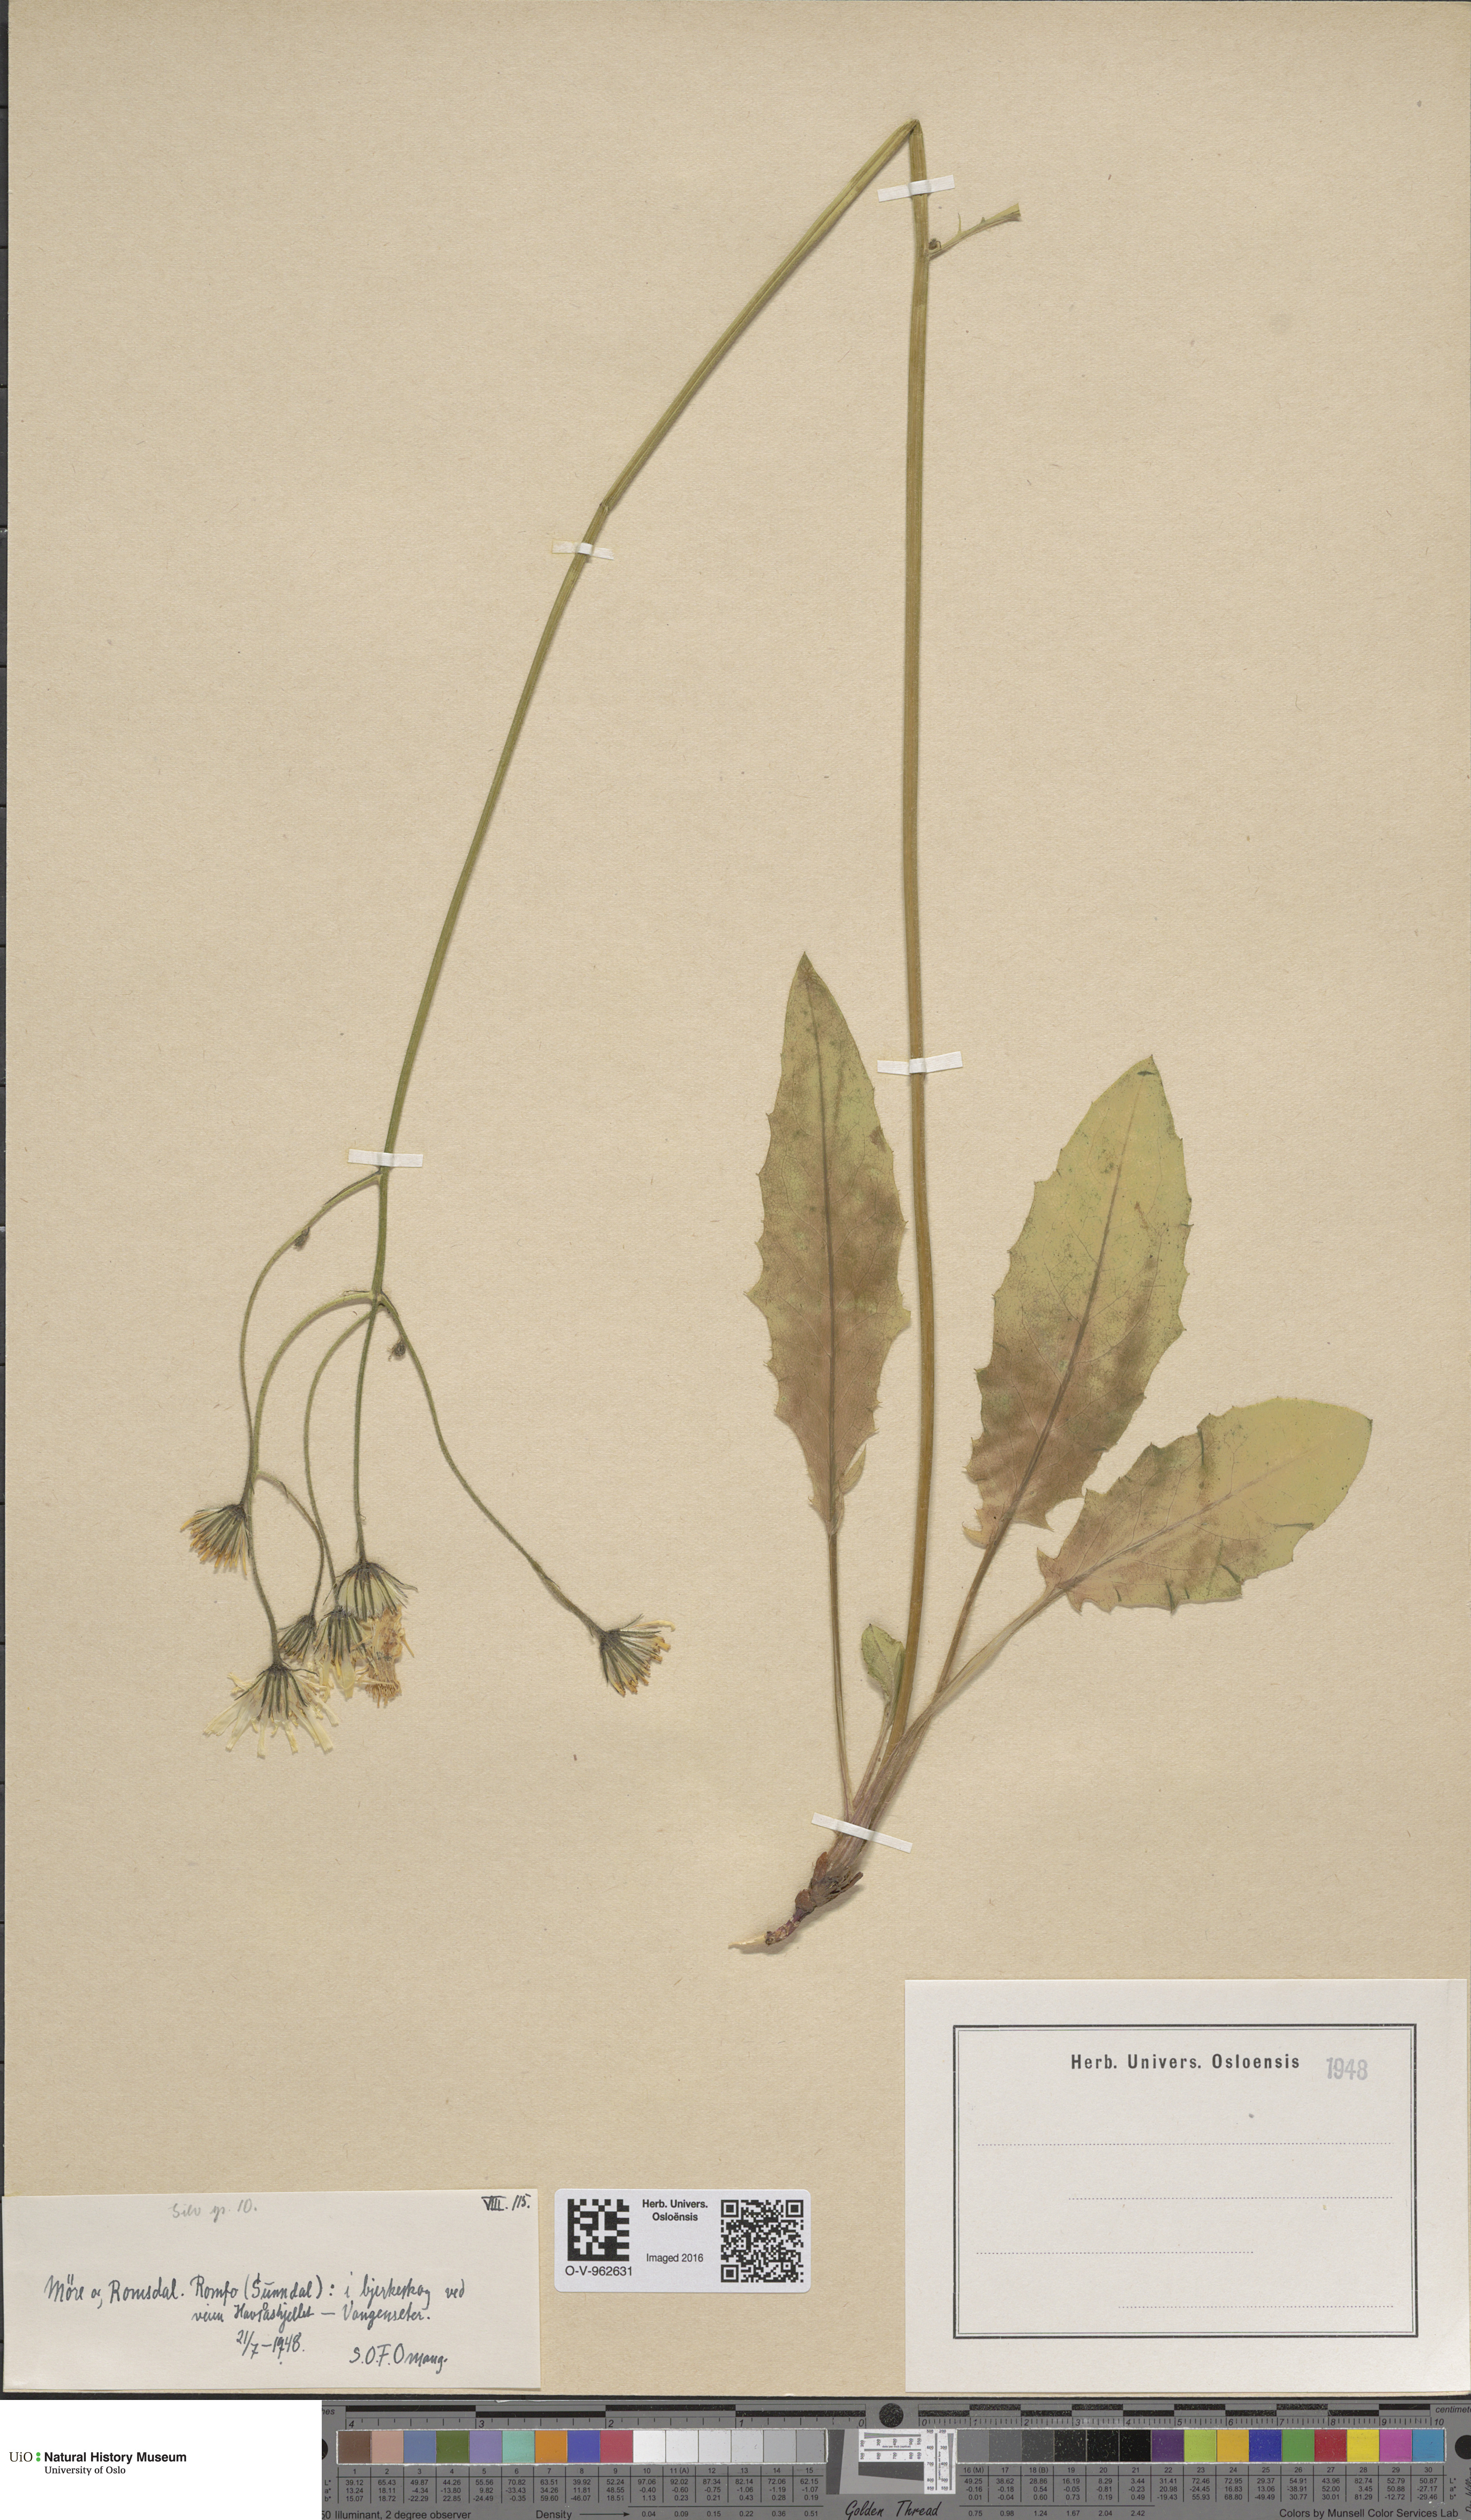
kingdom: Plantae
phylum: Tracheophyta
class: Magnoliopsida
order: Asterales
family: Asteraceae
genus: Hieracium
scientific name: Hieracium
